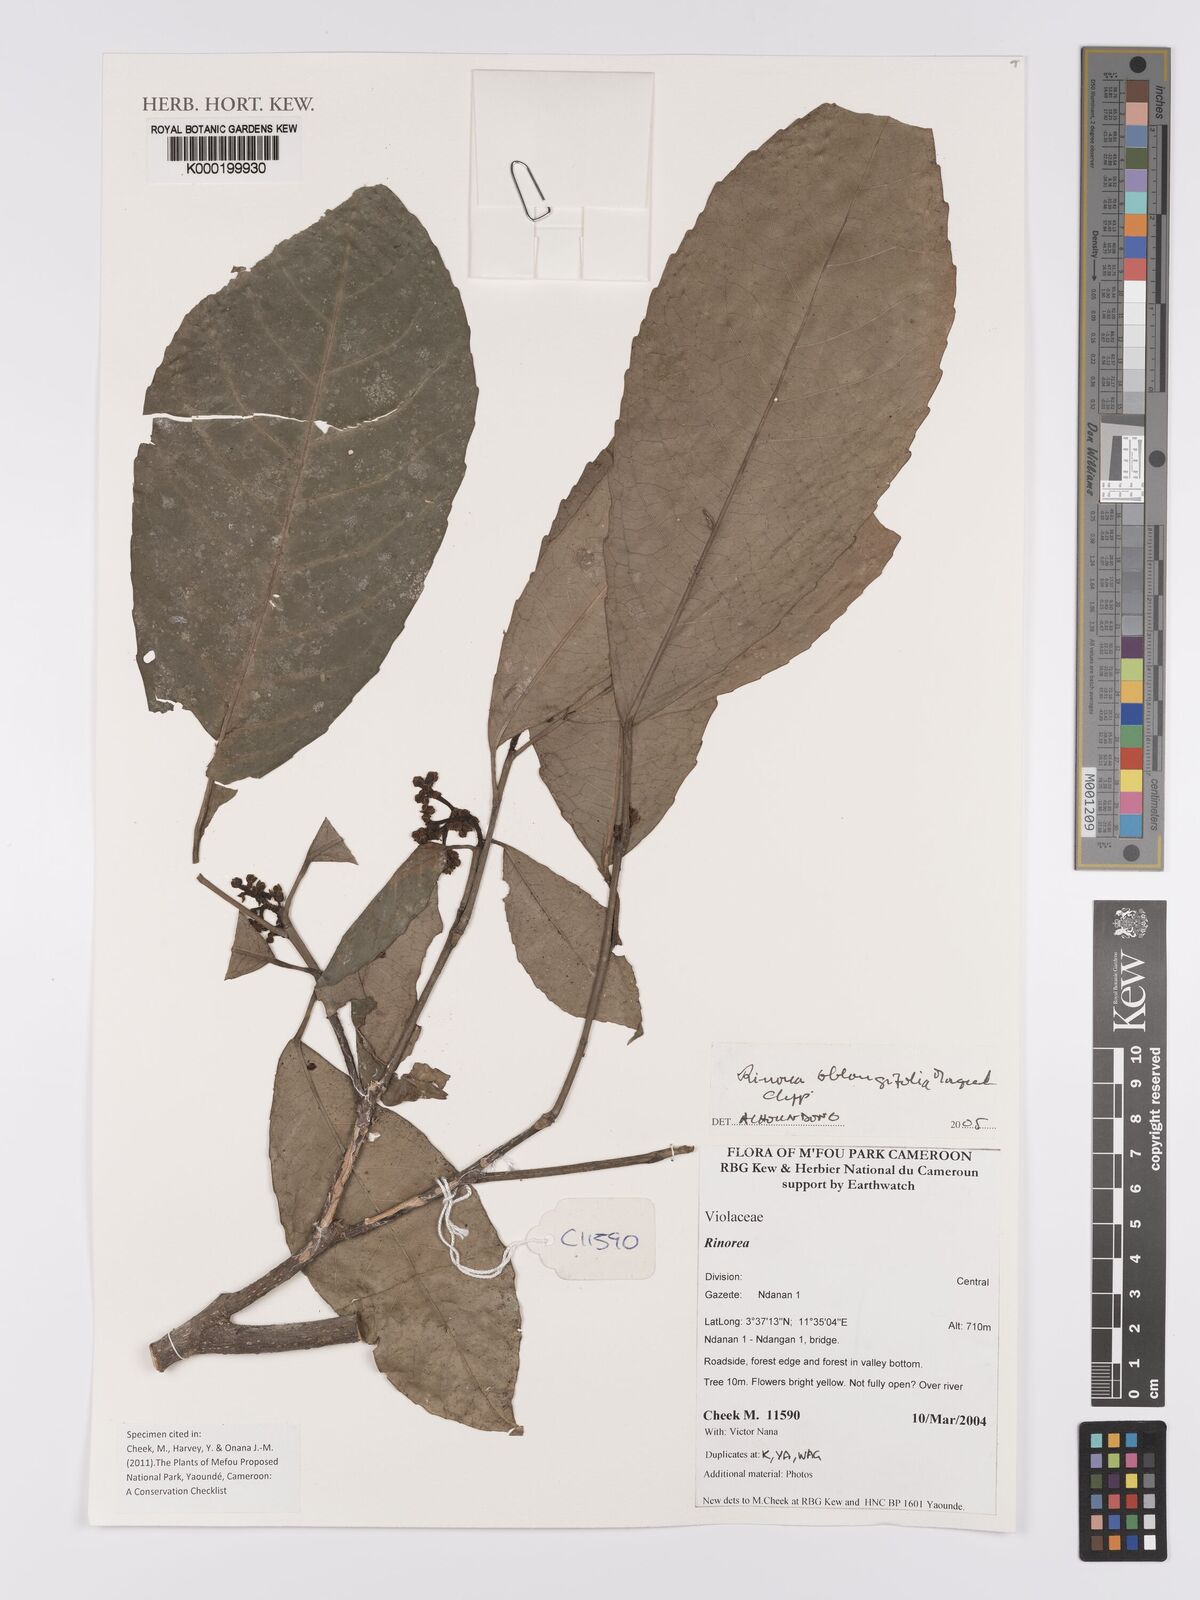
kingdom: Plantae
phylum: Tracheophyta
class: Magnoliopsida
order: Apiales
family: Pittosporaceae
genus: Marianthus
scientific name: Marianthus coeruleopunctatus
